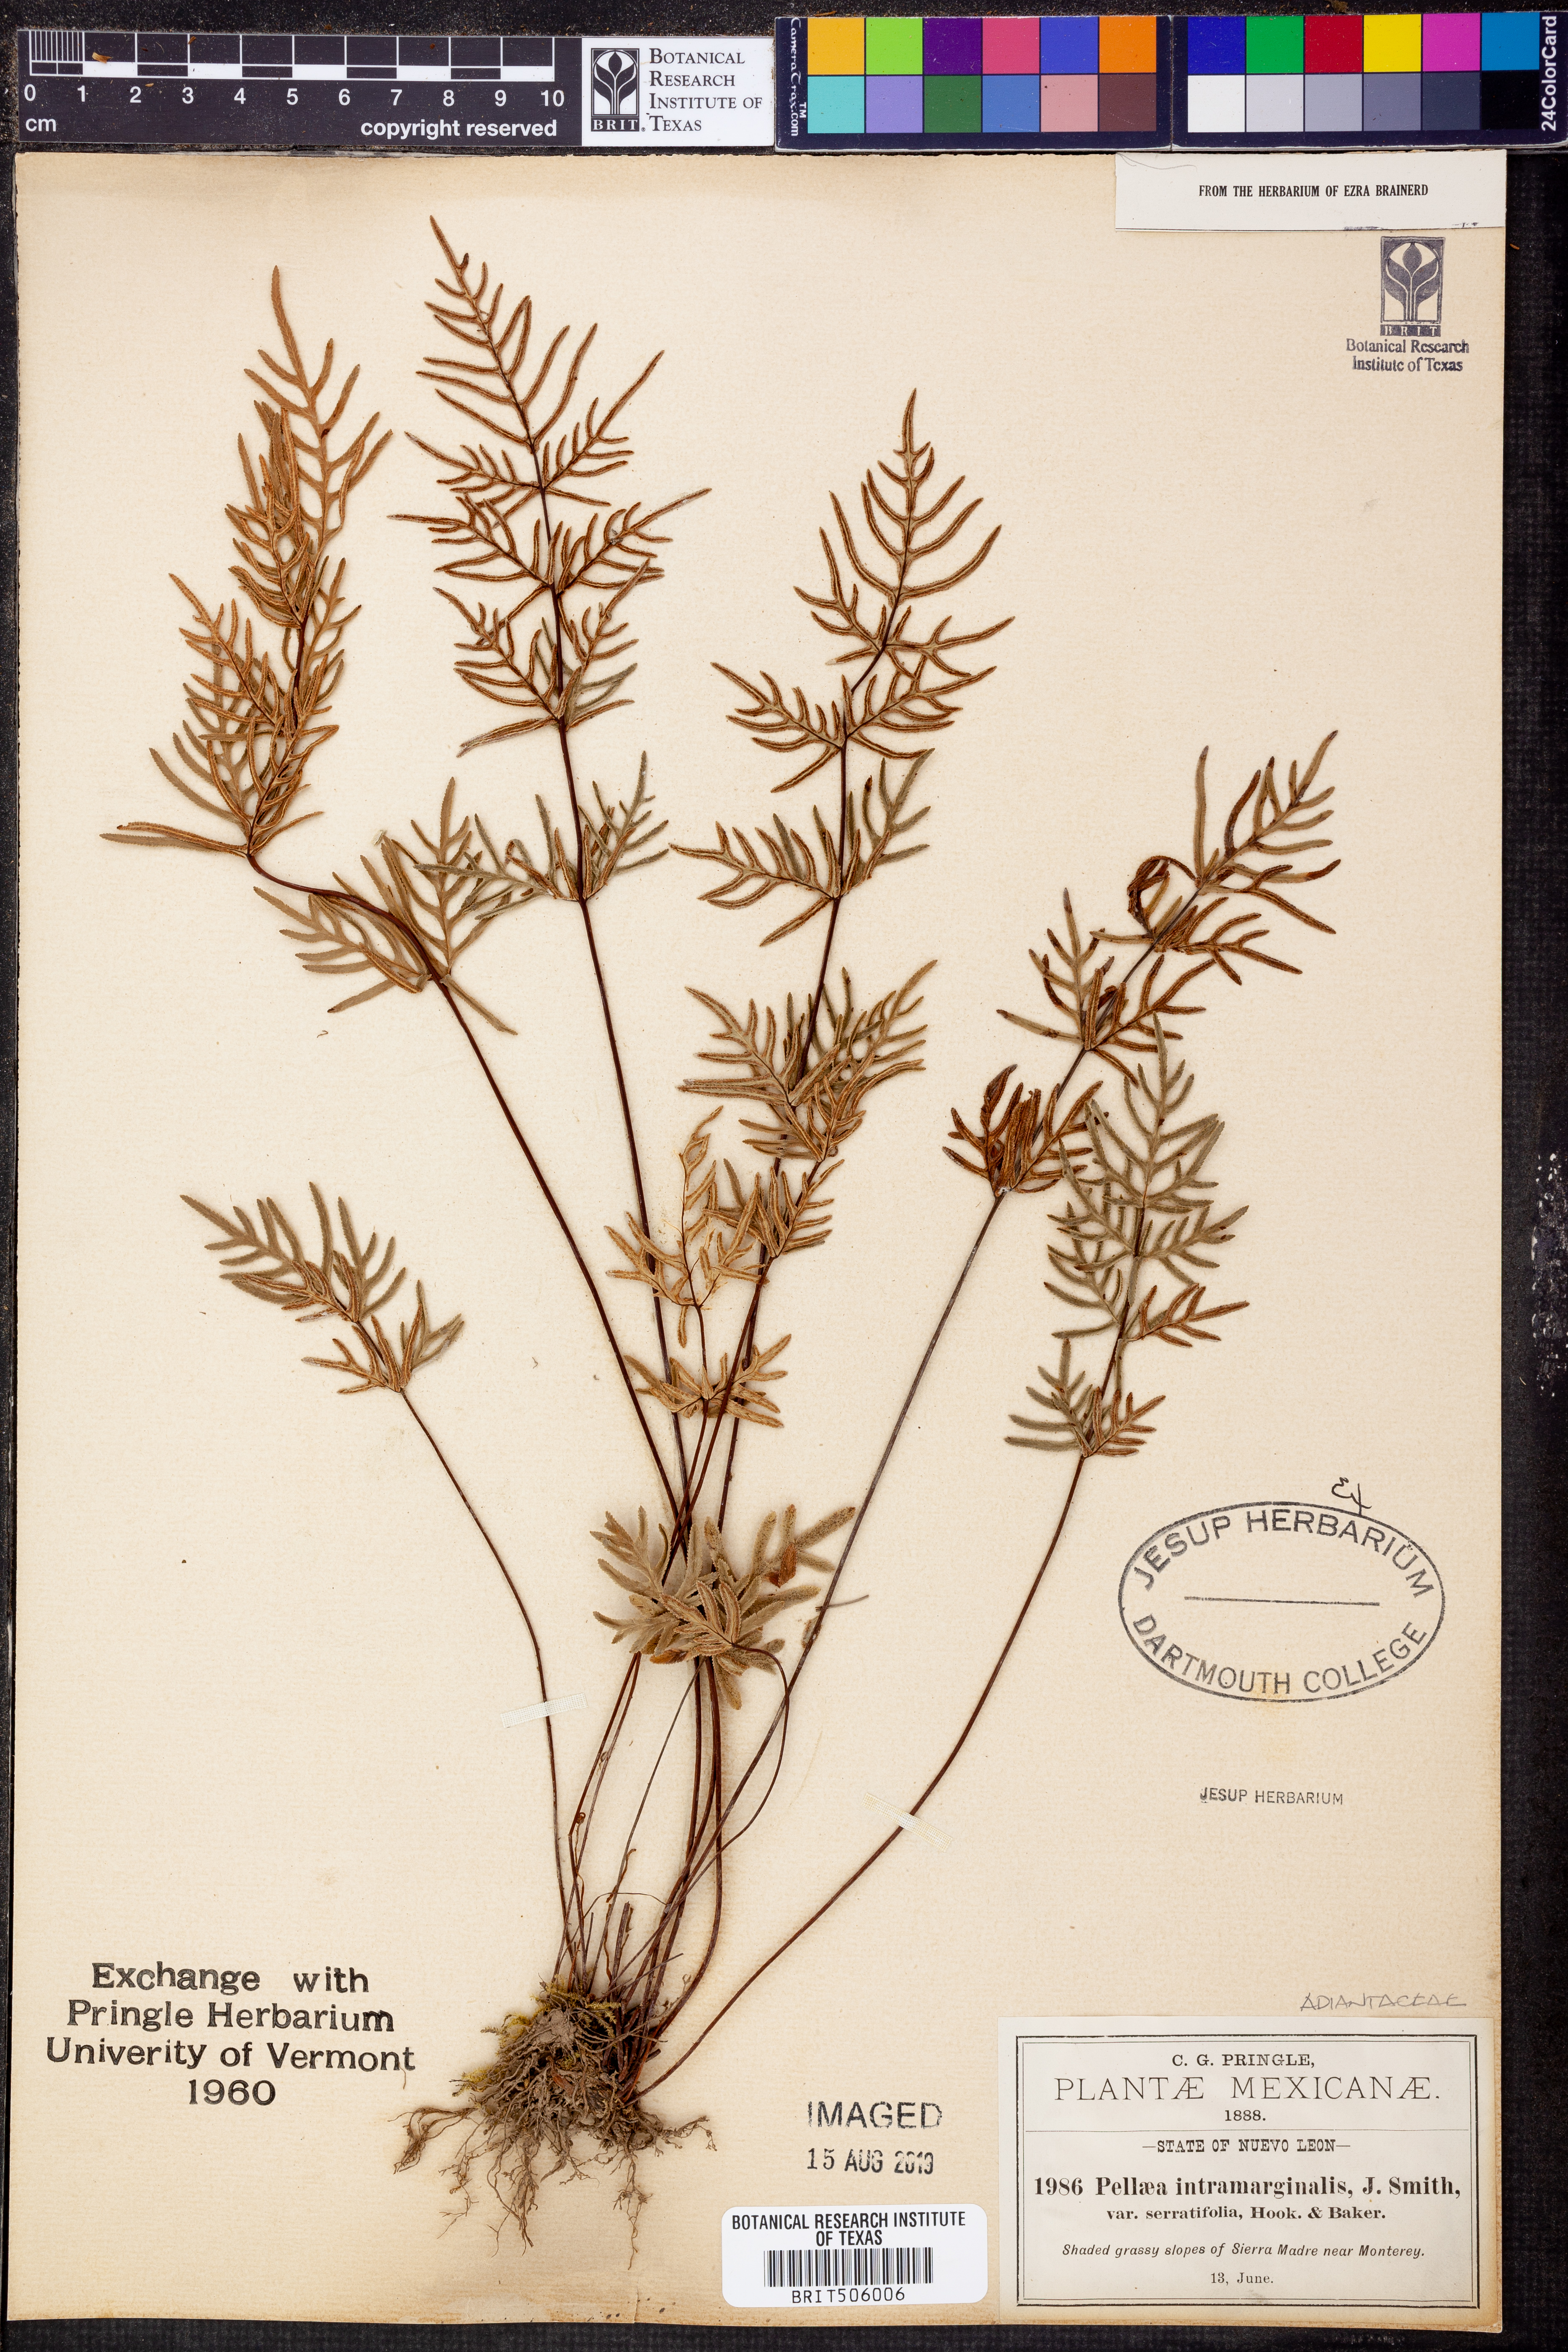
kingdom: Plantae
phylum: Tracheophyta
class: Polypodiopsida
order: Polypodiales
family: Pteridaceae
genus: Mildella
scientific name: Mildella fallax
